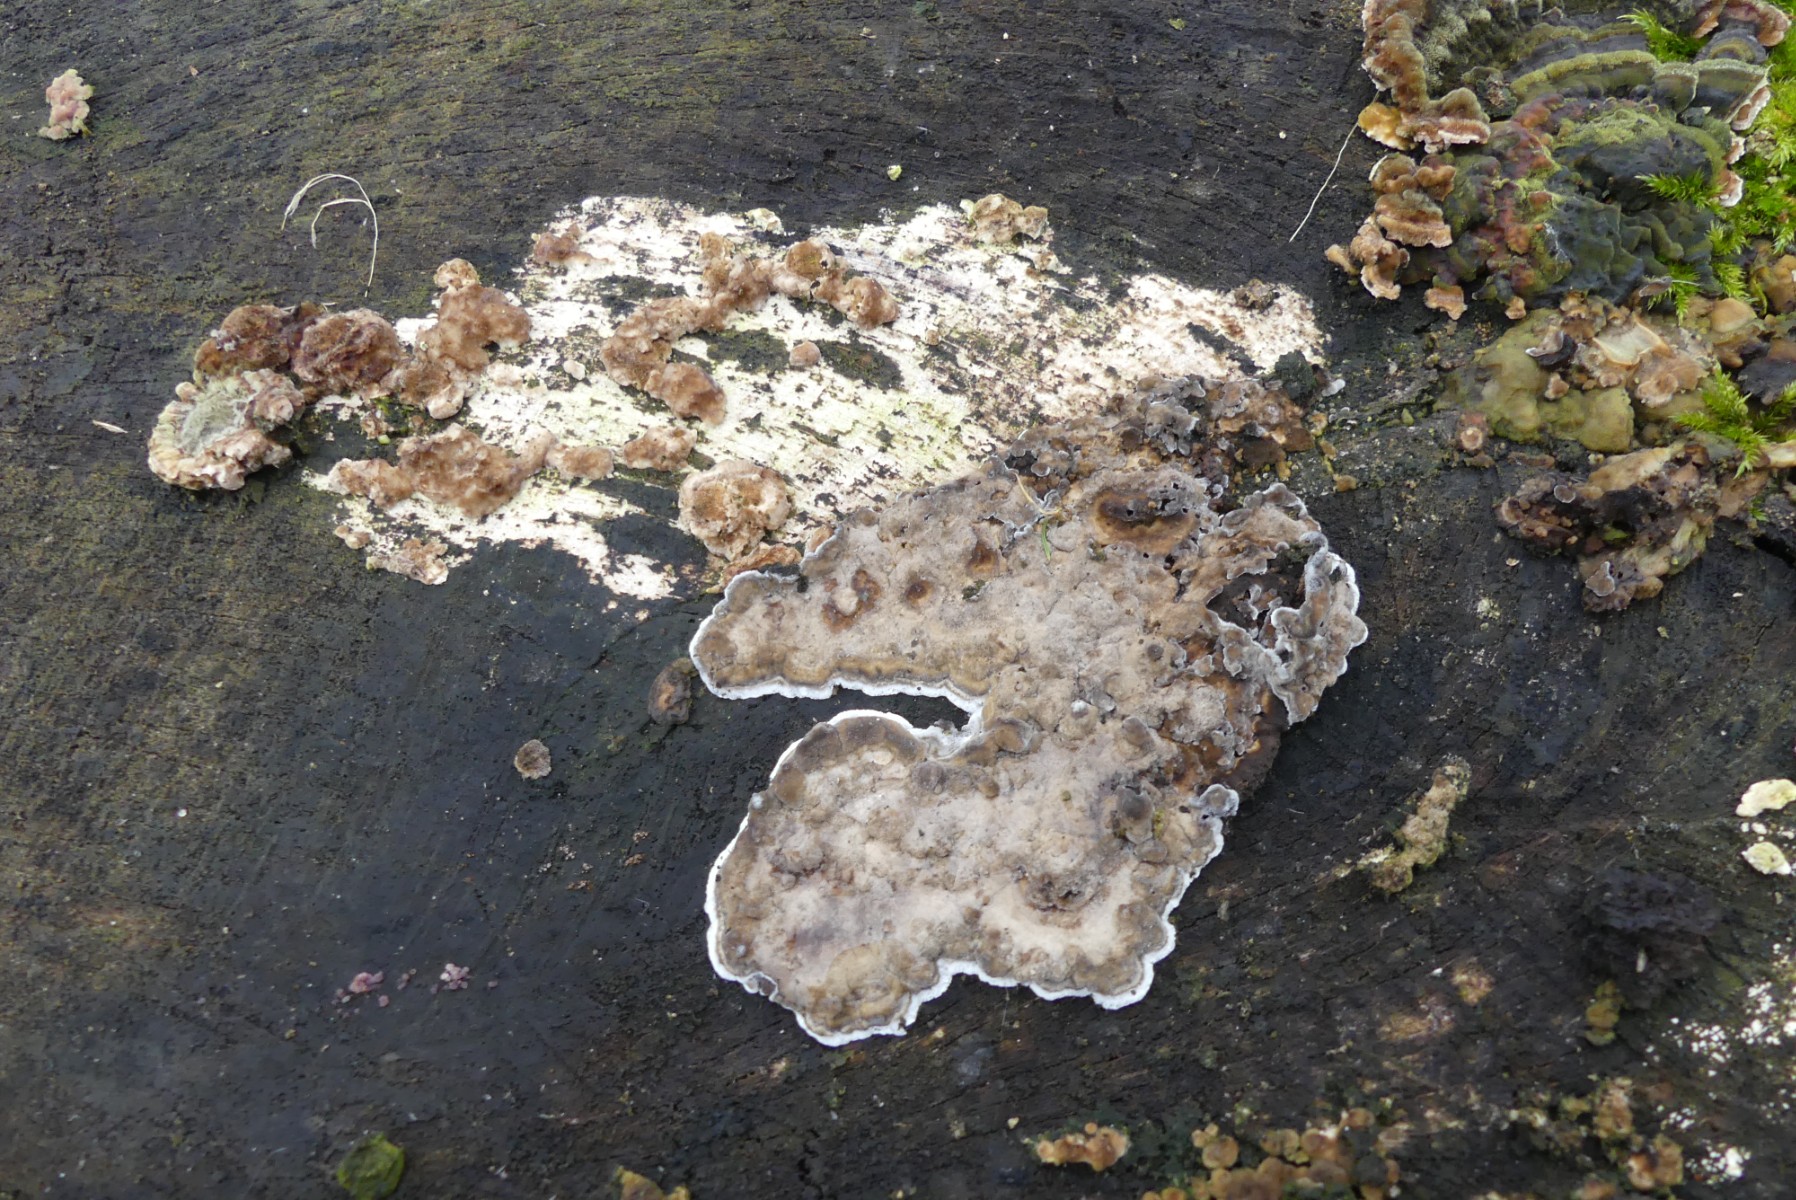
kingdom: Fungi
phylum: Basidiomycota
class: Agaricomycetes
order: Polyporales
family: Phanerochaetaceae
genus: Bjerkandera
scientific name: Bjerkandera adusta
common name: sveden sodporesvamp
